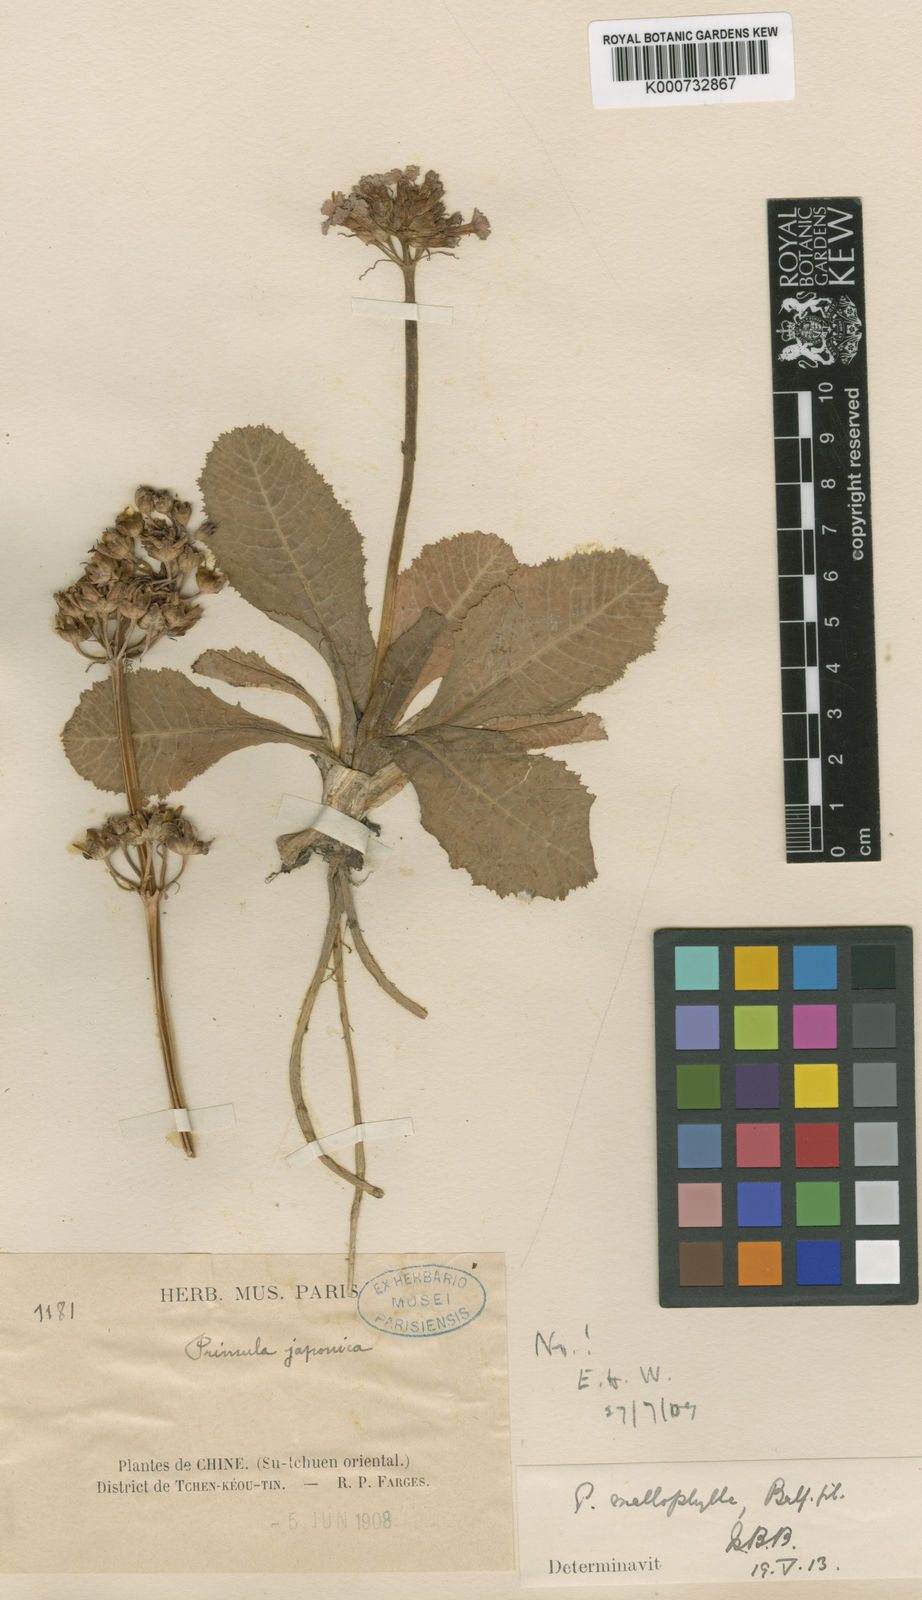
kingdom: Plantae
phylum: Tracheophyta
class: Magnoliopsida
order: Ericales
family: Primulaceae
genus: Primula
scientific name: Primula mallophylla
